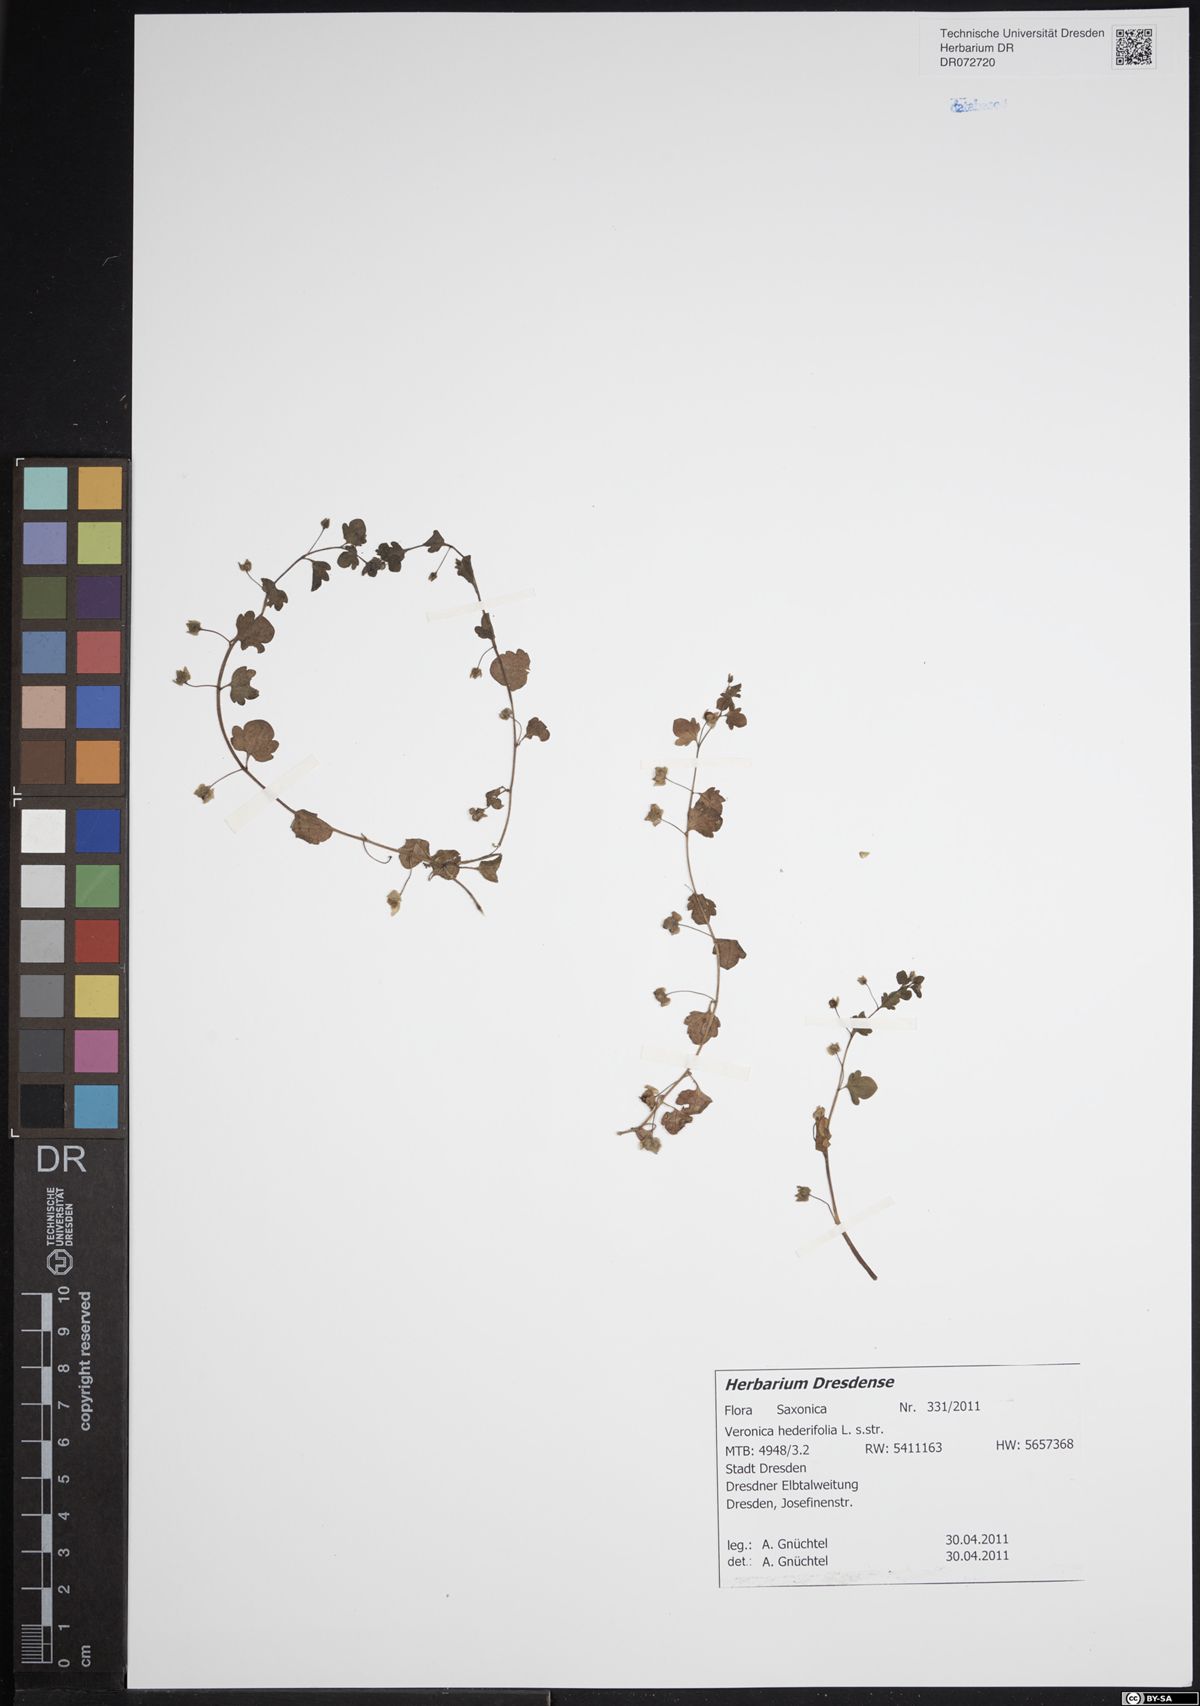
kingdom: Plantae
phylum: Tracheophyta
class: Magnoliopsida
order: Lamiales
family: Plantaginaceae
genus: Veronica
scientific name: Veronica hederifolia
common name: Ivy-leaved speedwell
